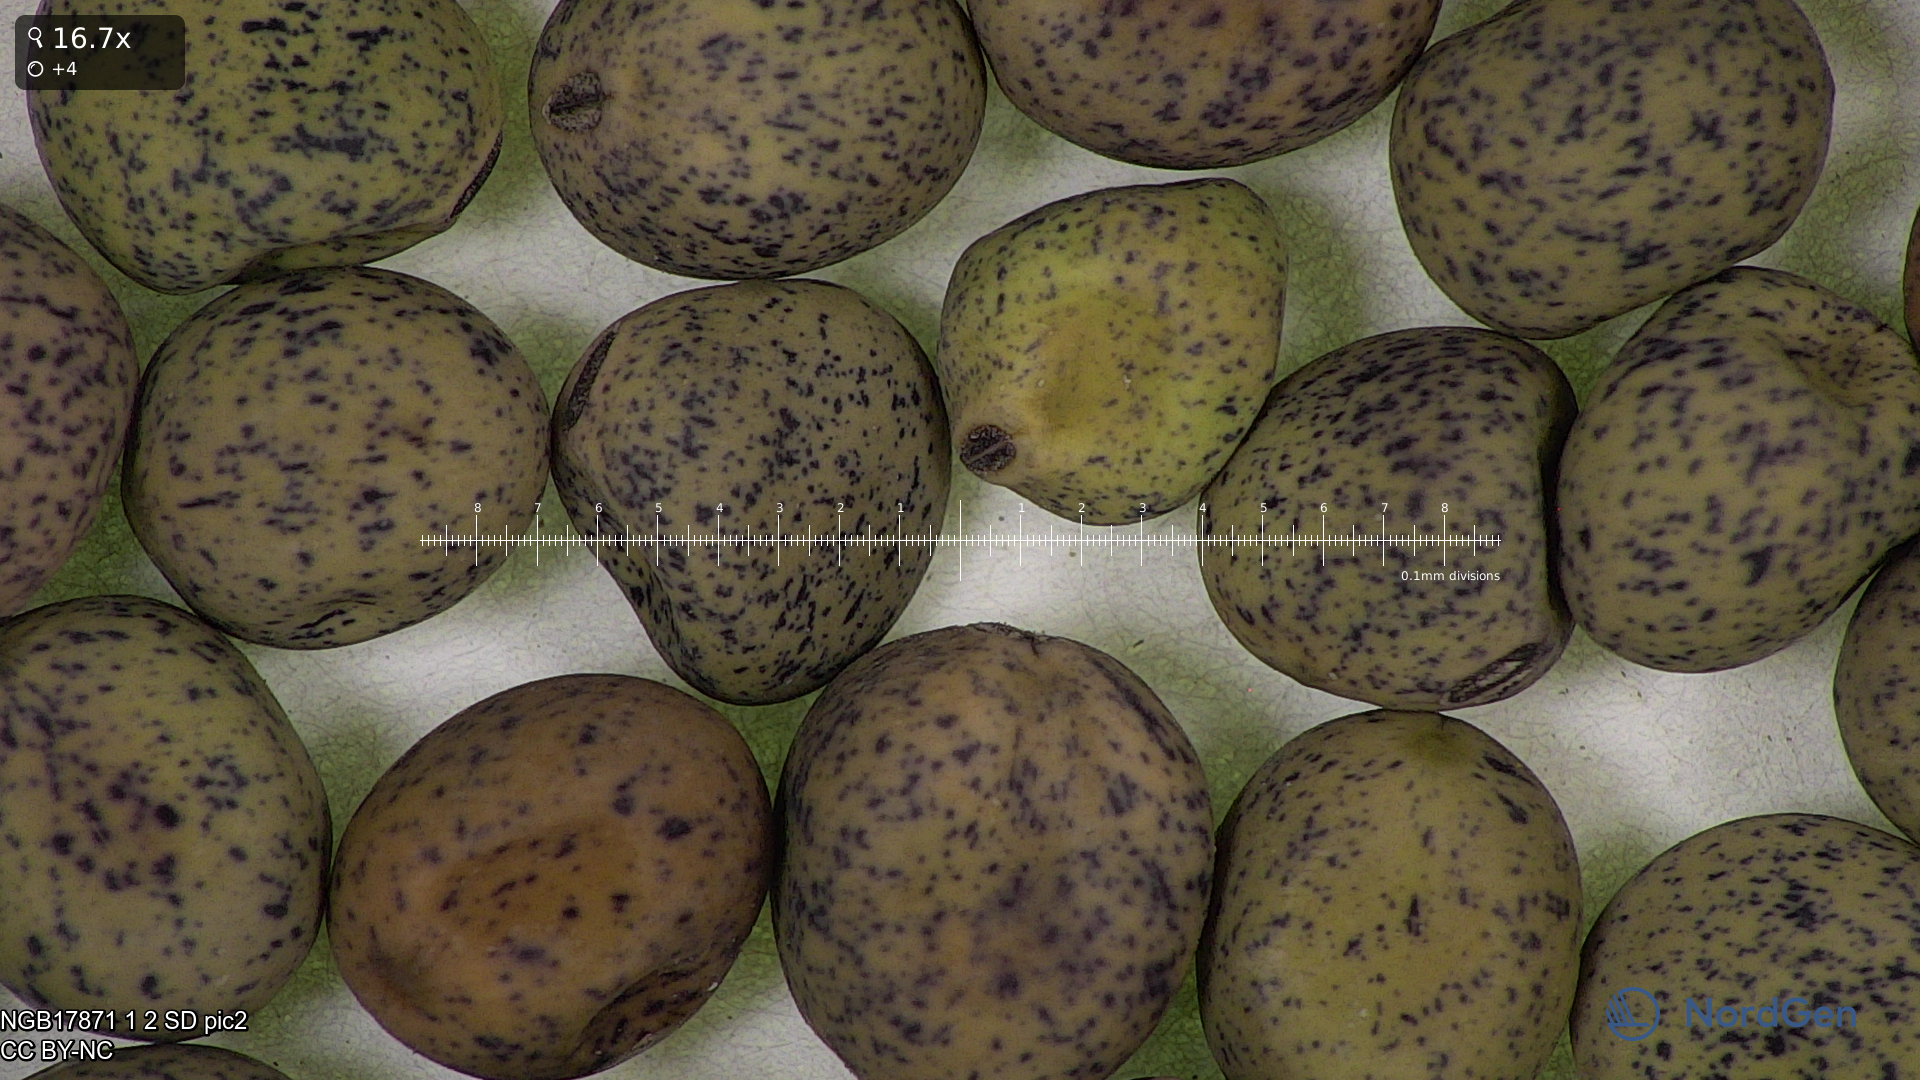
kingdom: Plantae
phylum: Tracheophyta
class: Magnoliopsida
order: Fabales
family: Fabaceae
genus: Lathyrus
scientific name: Lathyrus oleraceus
